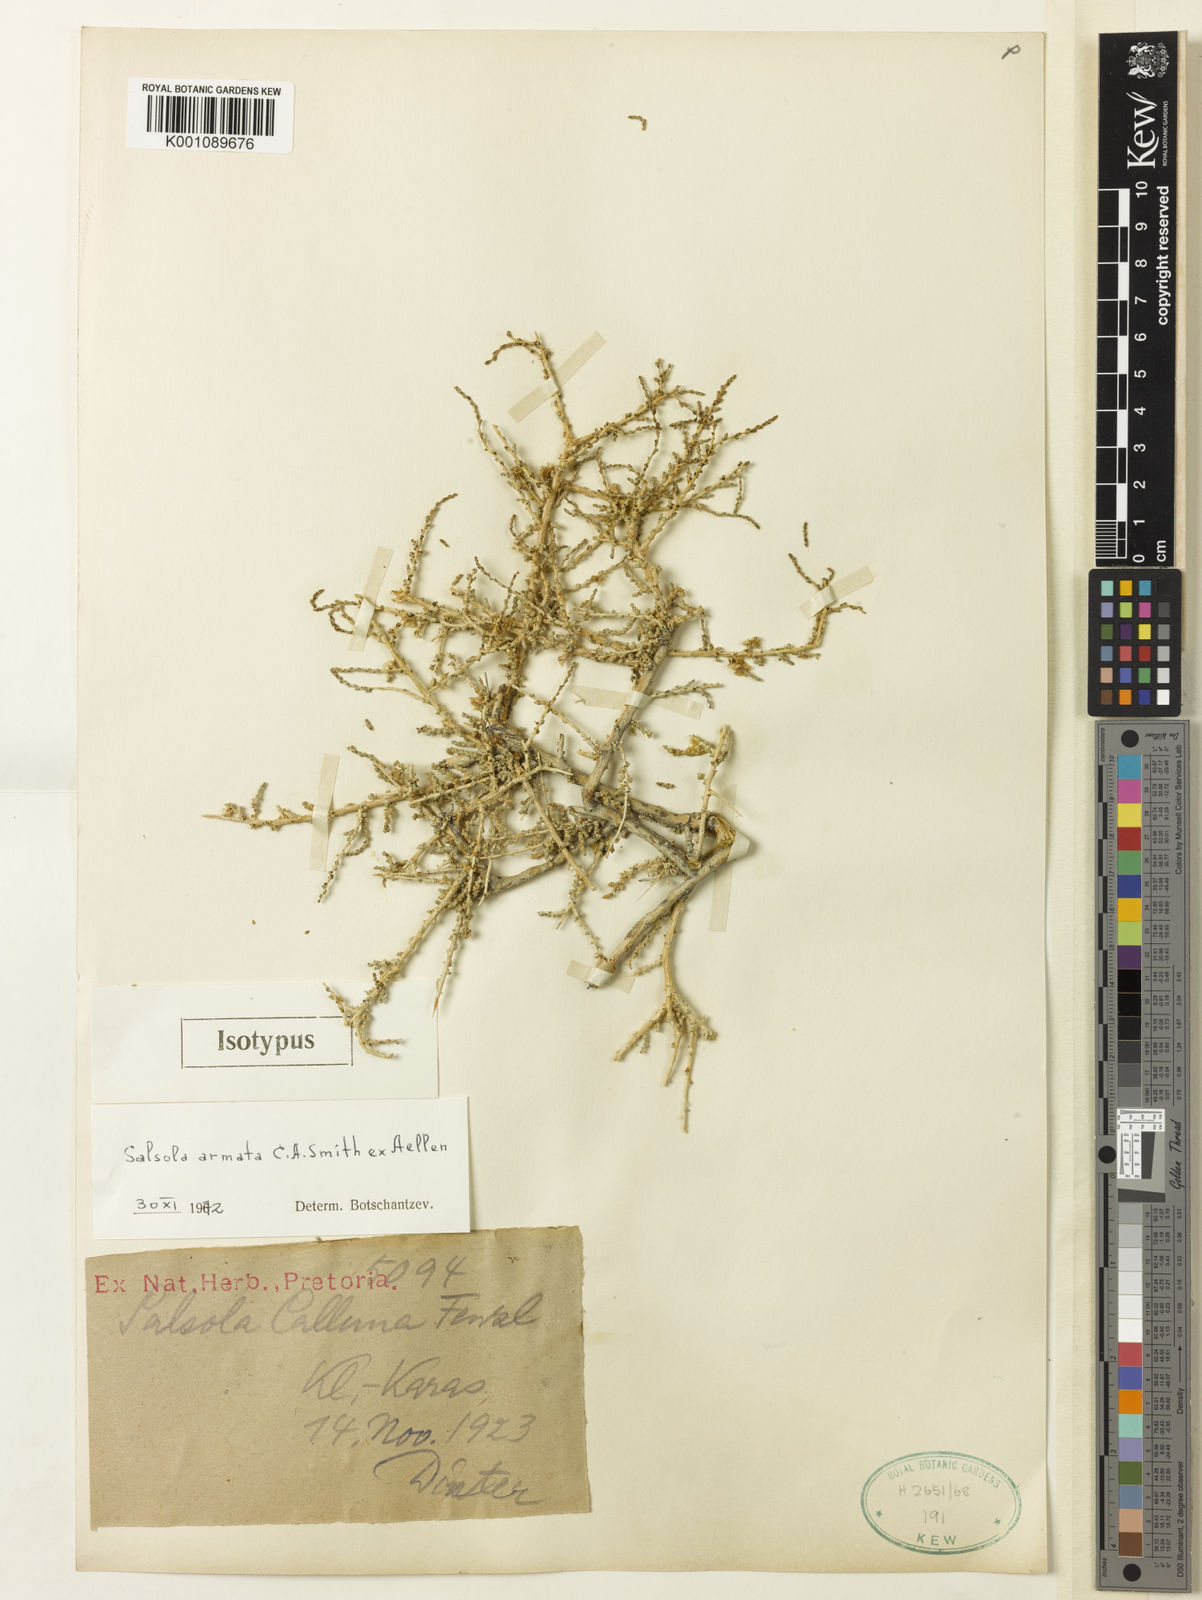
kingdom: Plantae
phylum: Tracheophyta
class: Magnoliopsida
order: Caryophyllales
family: Amaranthaceae
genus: Caroxylon
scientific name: Caroxylon armatum
